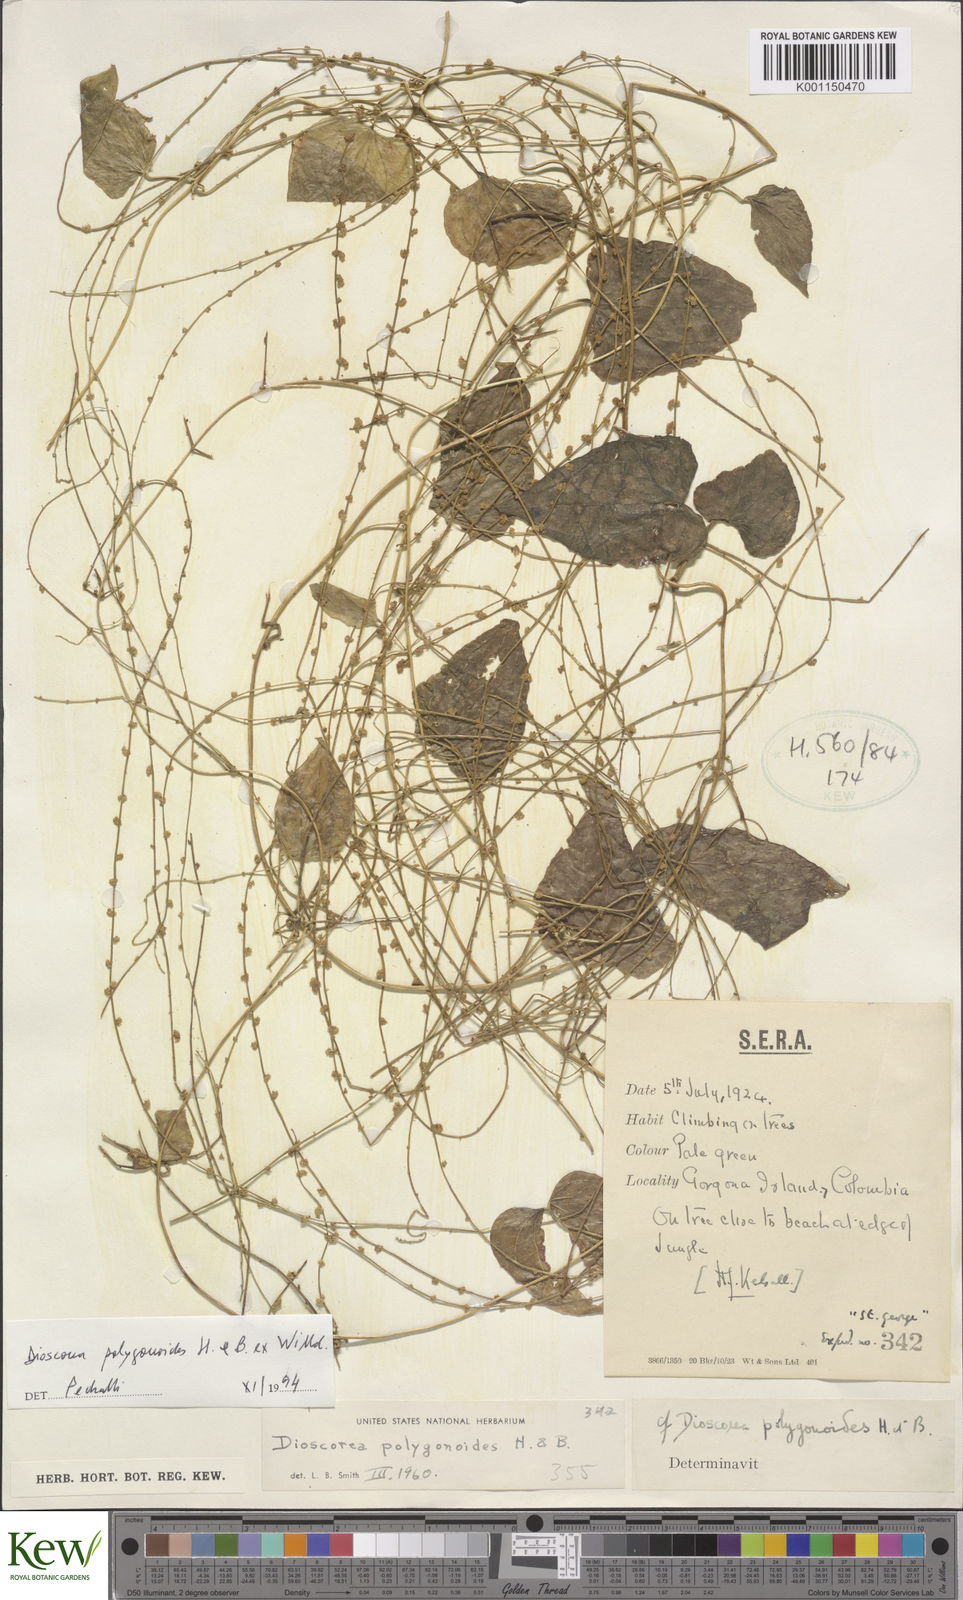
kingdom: Plantae
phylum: Tracheophyta
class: Liliopsida
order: Dioscoreales
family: Dioscoreaceae
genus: Dioscorea
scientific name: Dioscorea polygonoides
